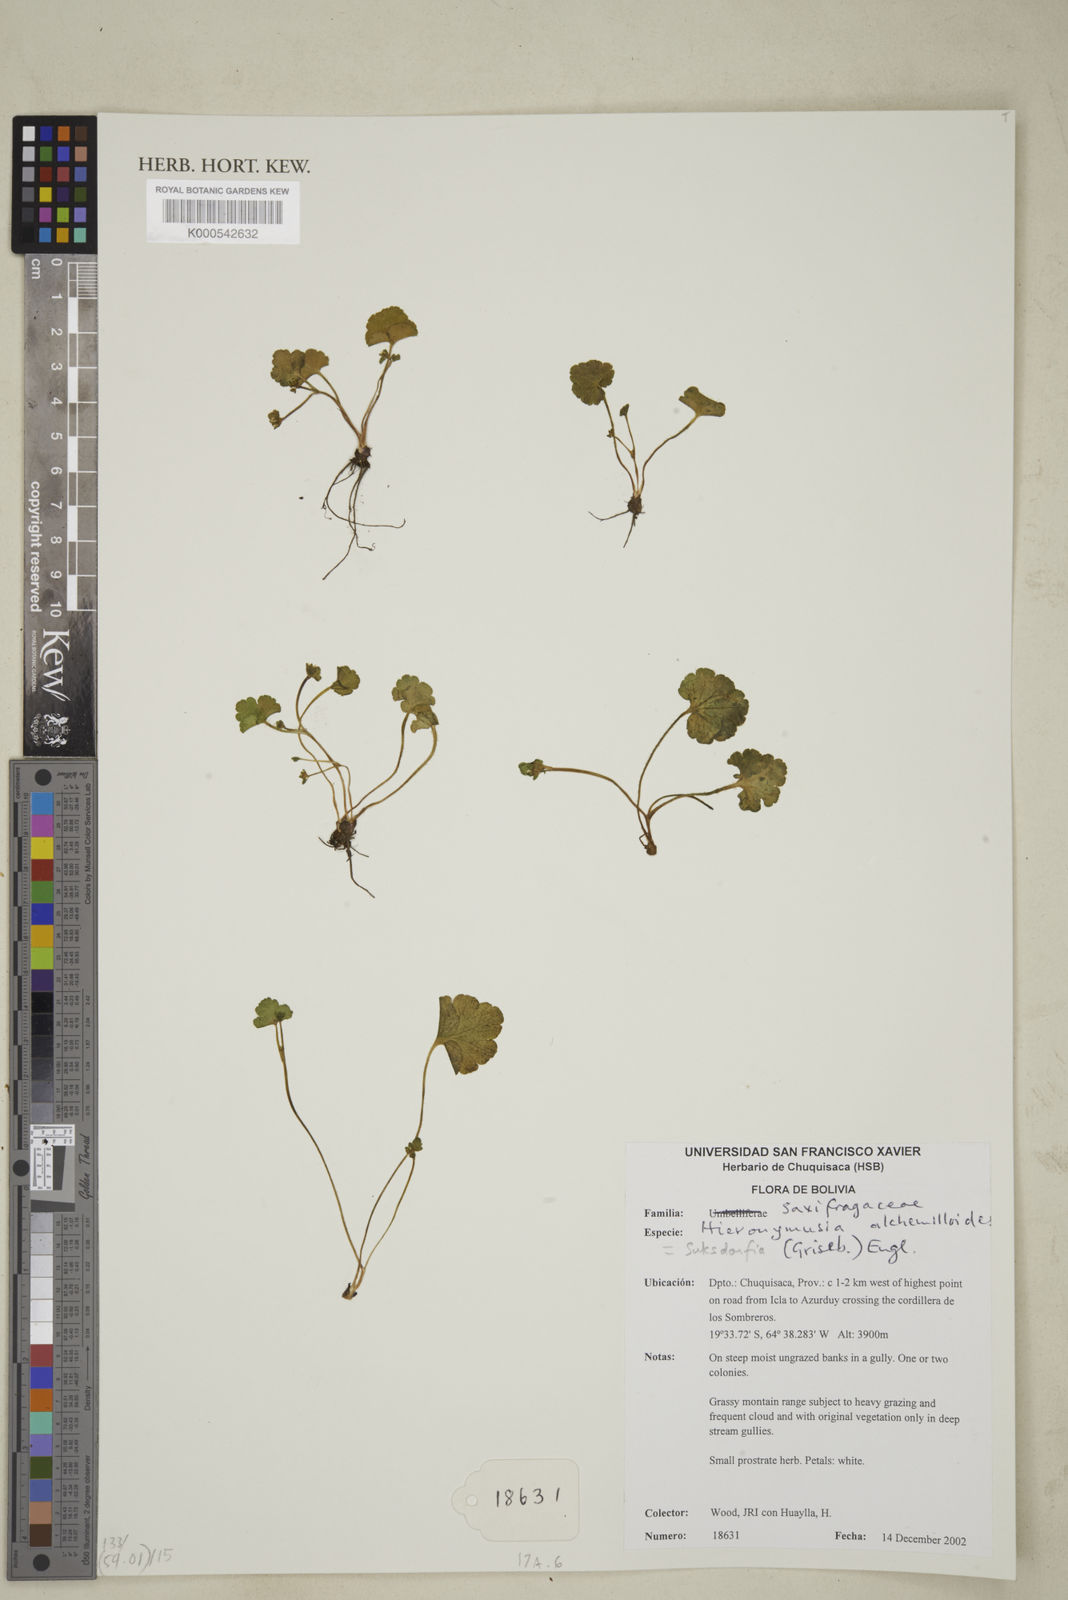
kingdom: Plantae
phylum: Tracheophyta
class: Magnoliopsida
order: Saxifragales
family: Saxifragaceae
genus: Hieronymusia
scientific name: Hieronymusia alchemilloides
